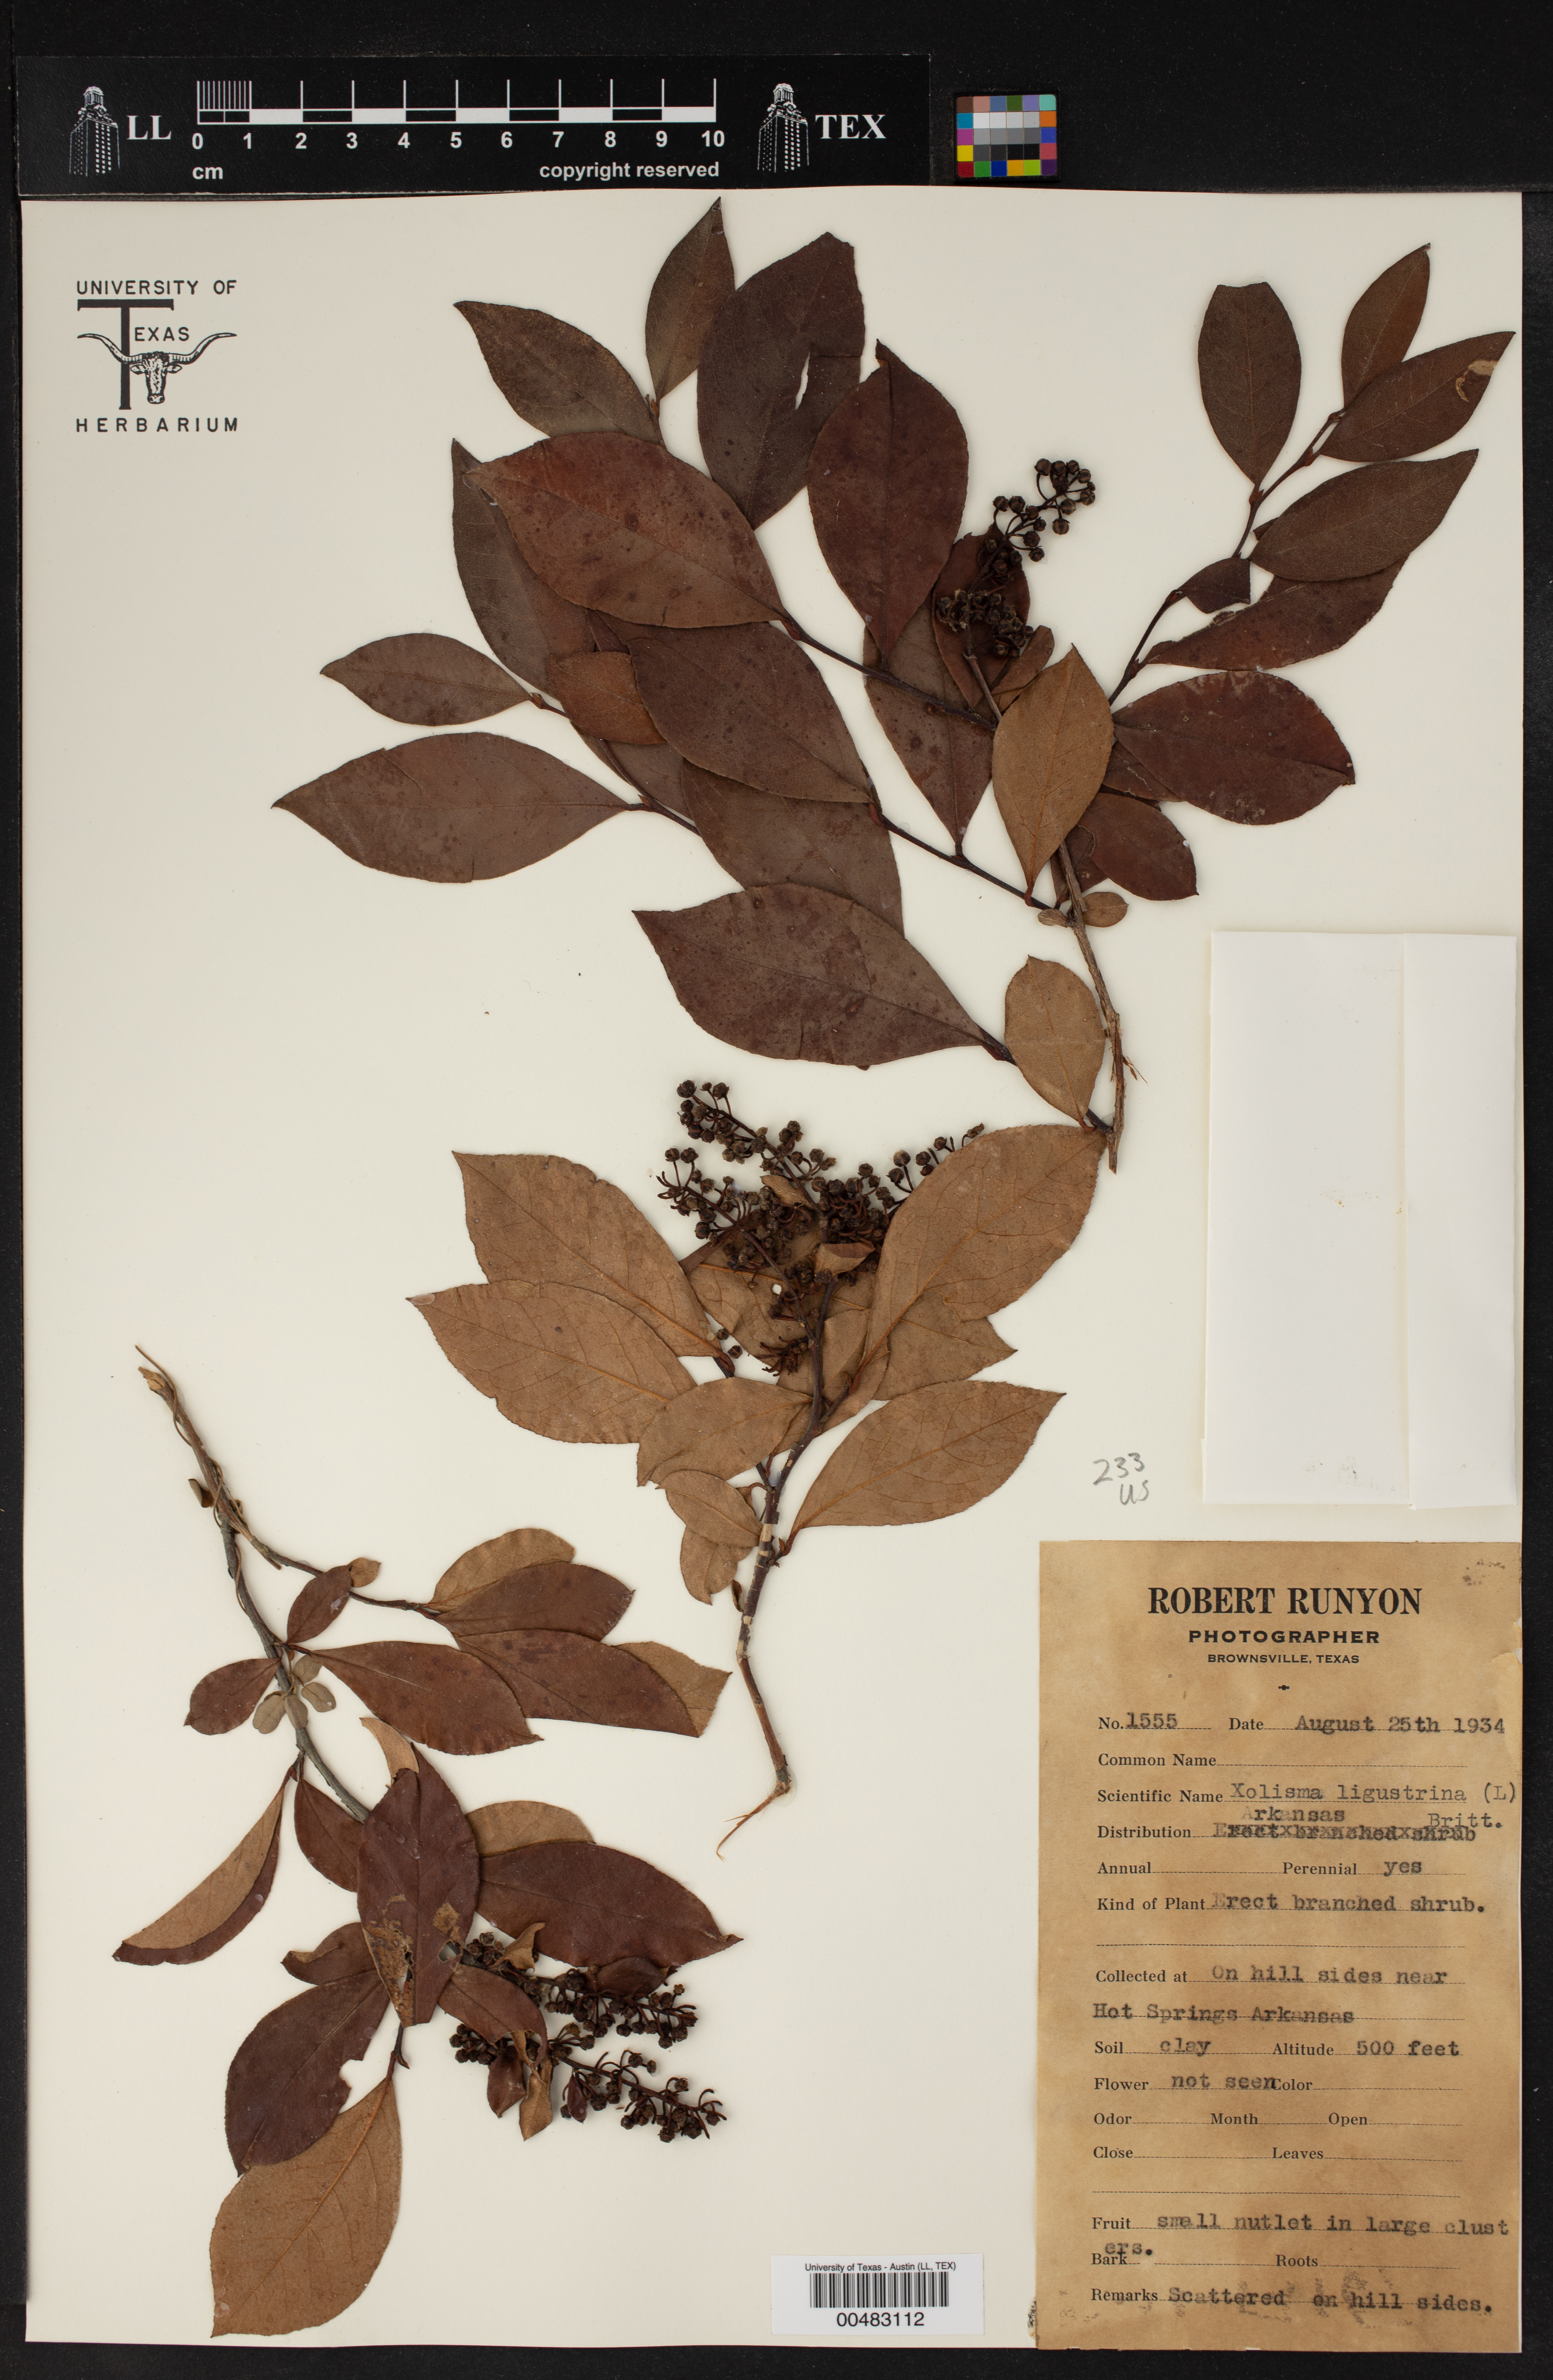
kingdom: Plantae
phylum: Tracheophyta
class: Magnoliopsida
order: Ericales
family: Ericaceae
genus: Lyonia
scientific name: Lyonia ligustrina
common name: Maleberry
